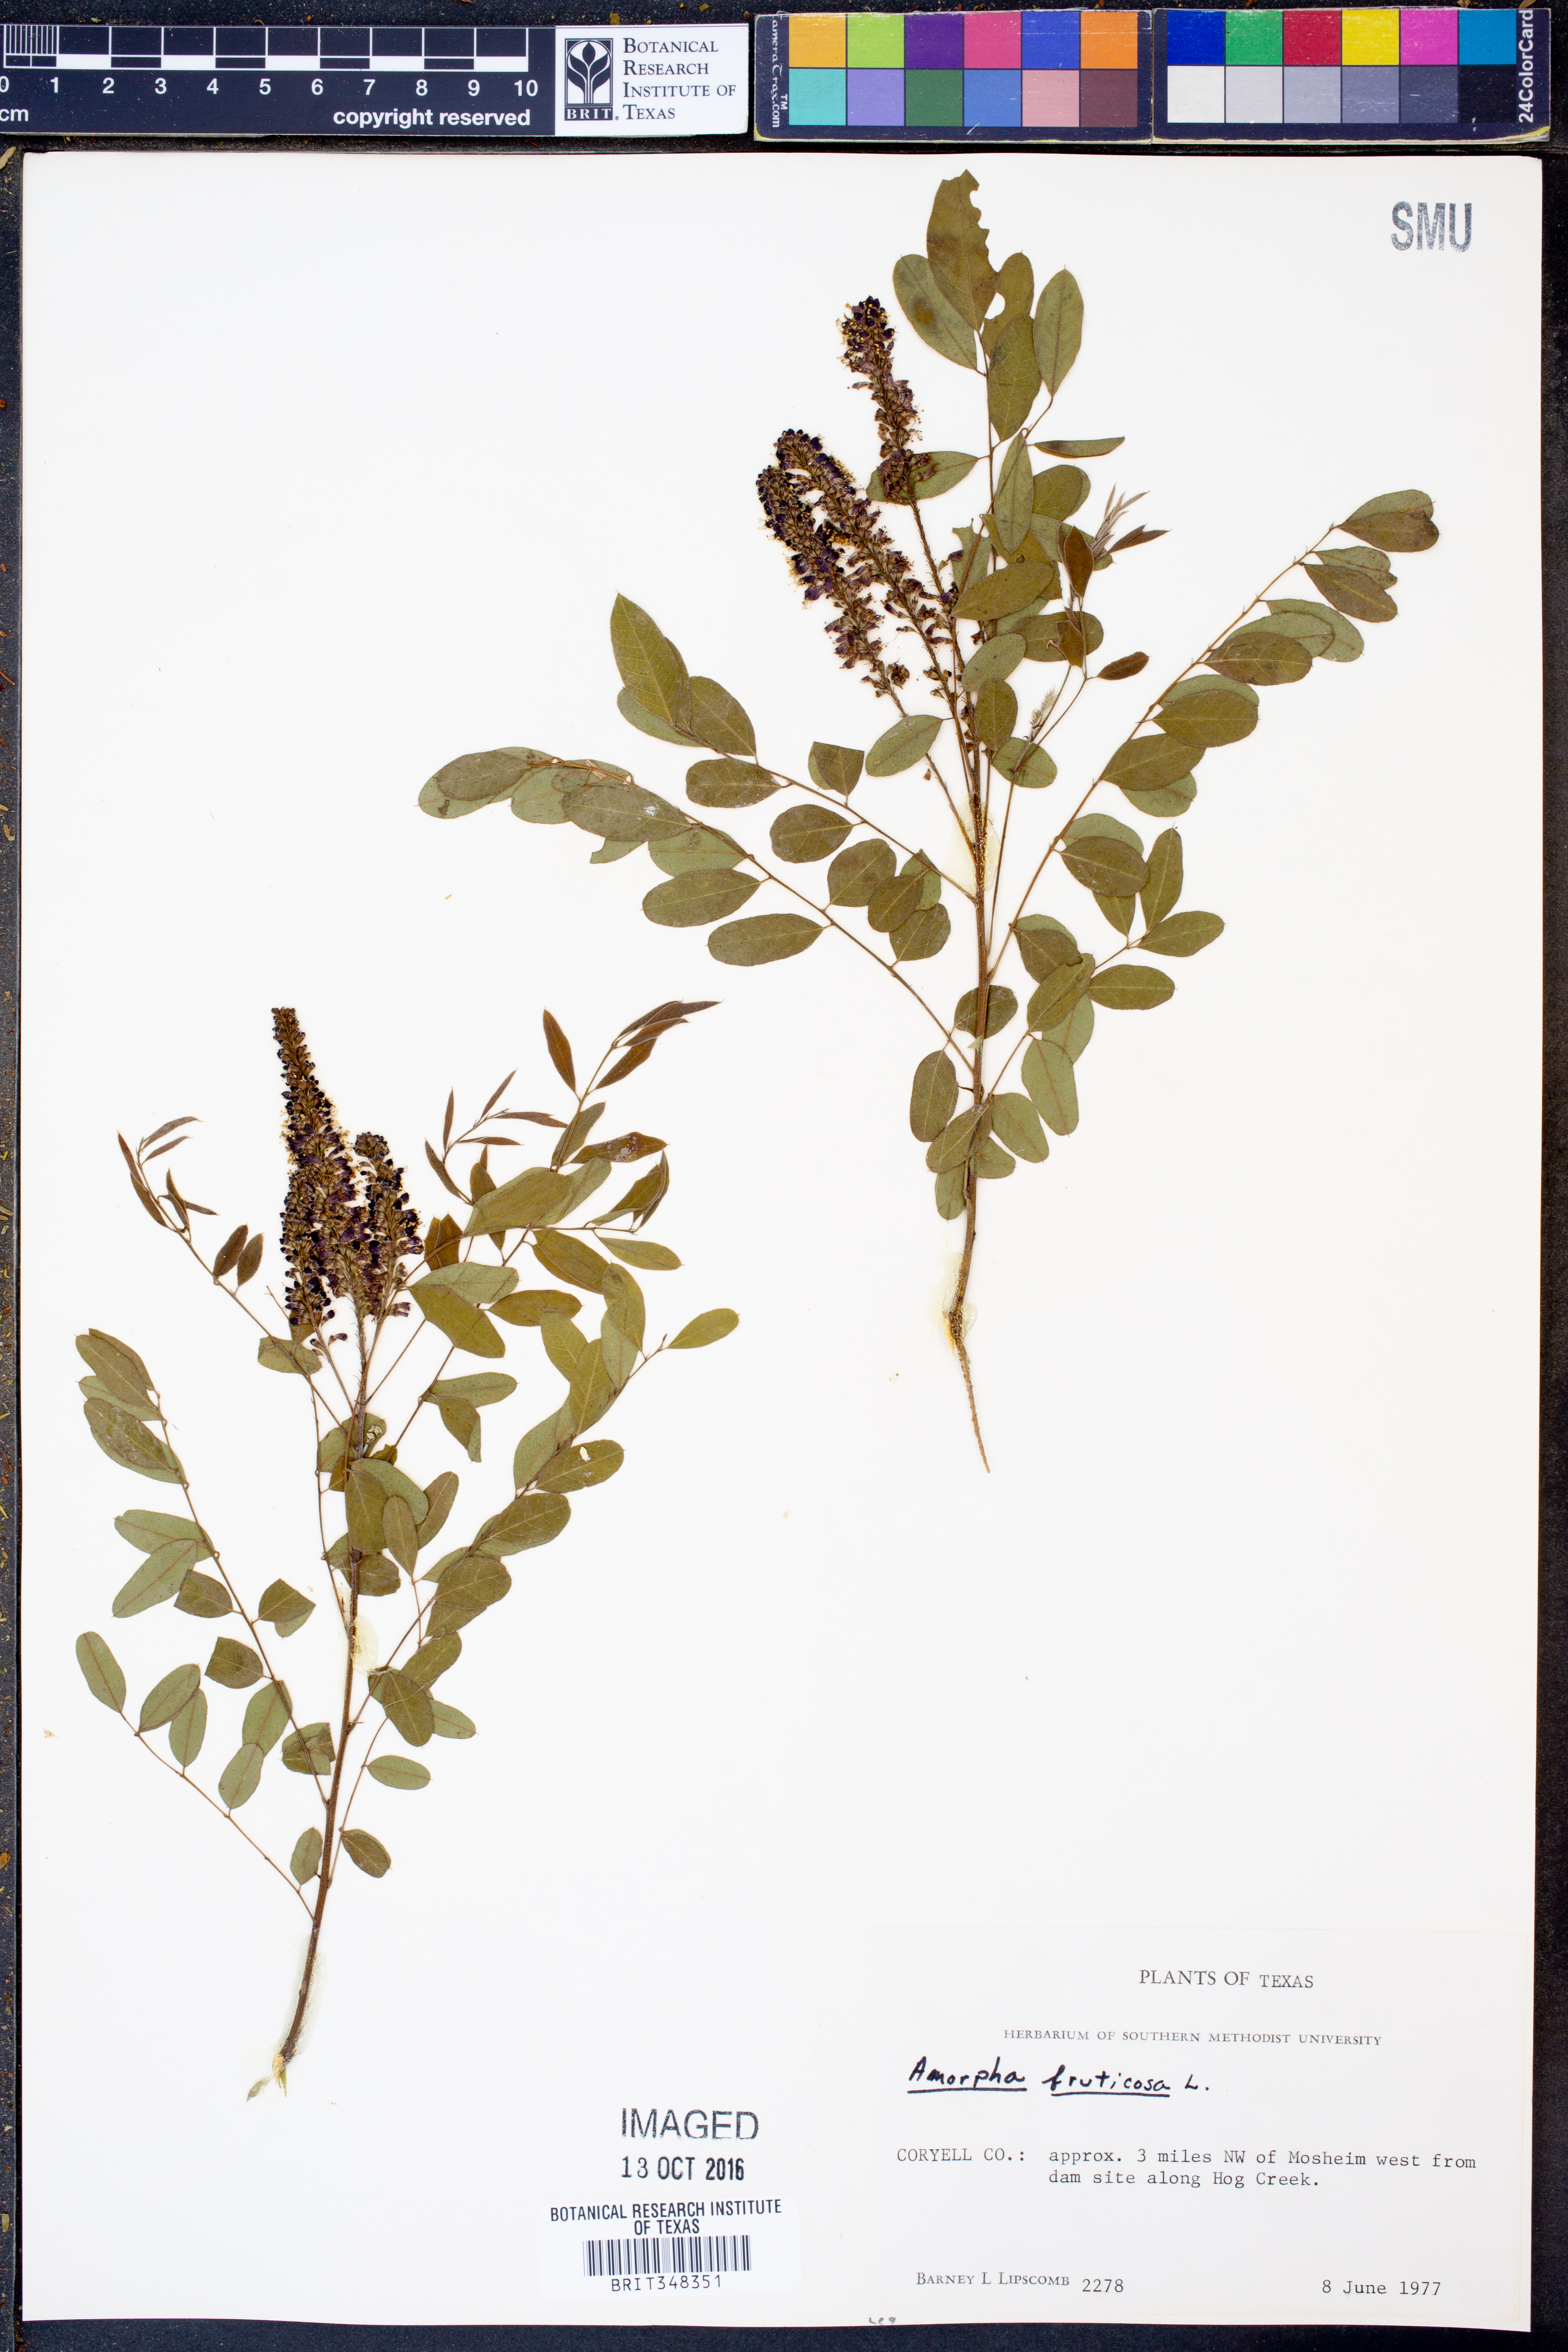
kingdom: Plantae
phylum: Tracheophyta
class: Magnoliopsida
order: Fabales
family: Fabaceae
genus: Amorpha
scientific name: Amorpha fruticosa
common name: False indigo
